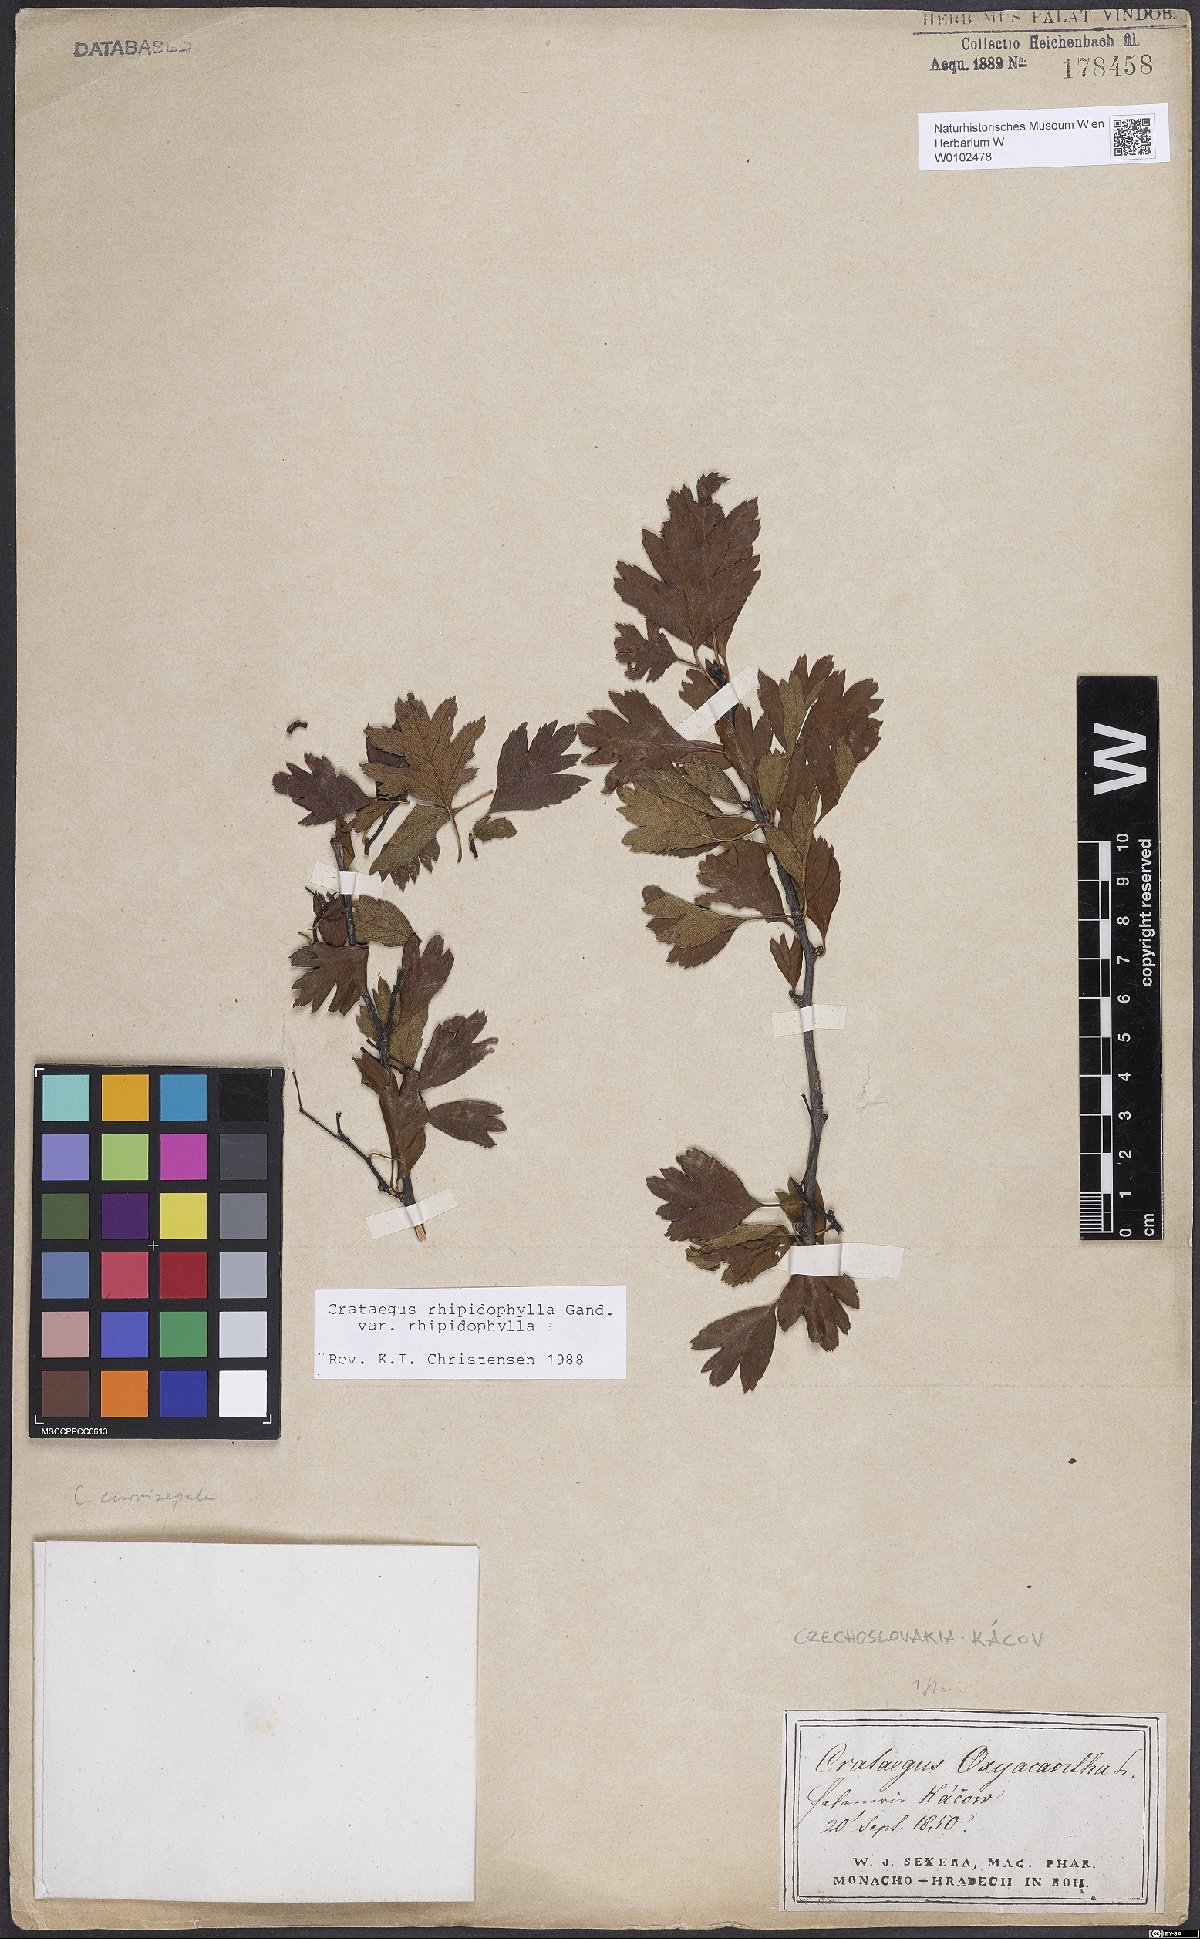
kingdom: Plantae
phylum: Tracheophyta
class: Magnoliopsida
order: Rosales
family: Rosaceae
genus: Crataegus
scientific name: Crataegus rhipidophylla
